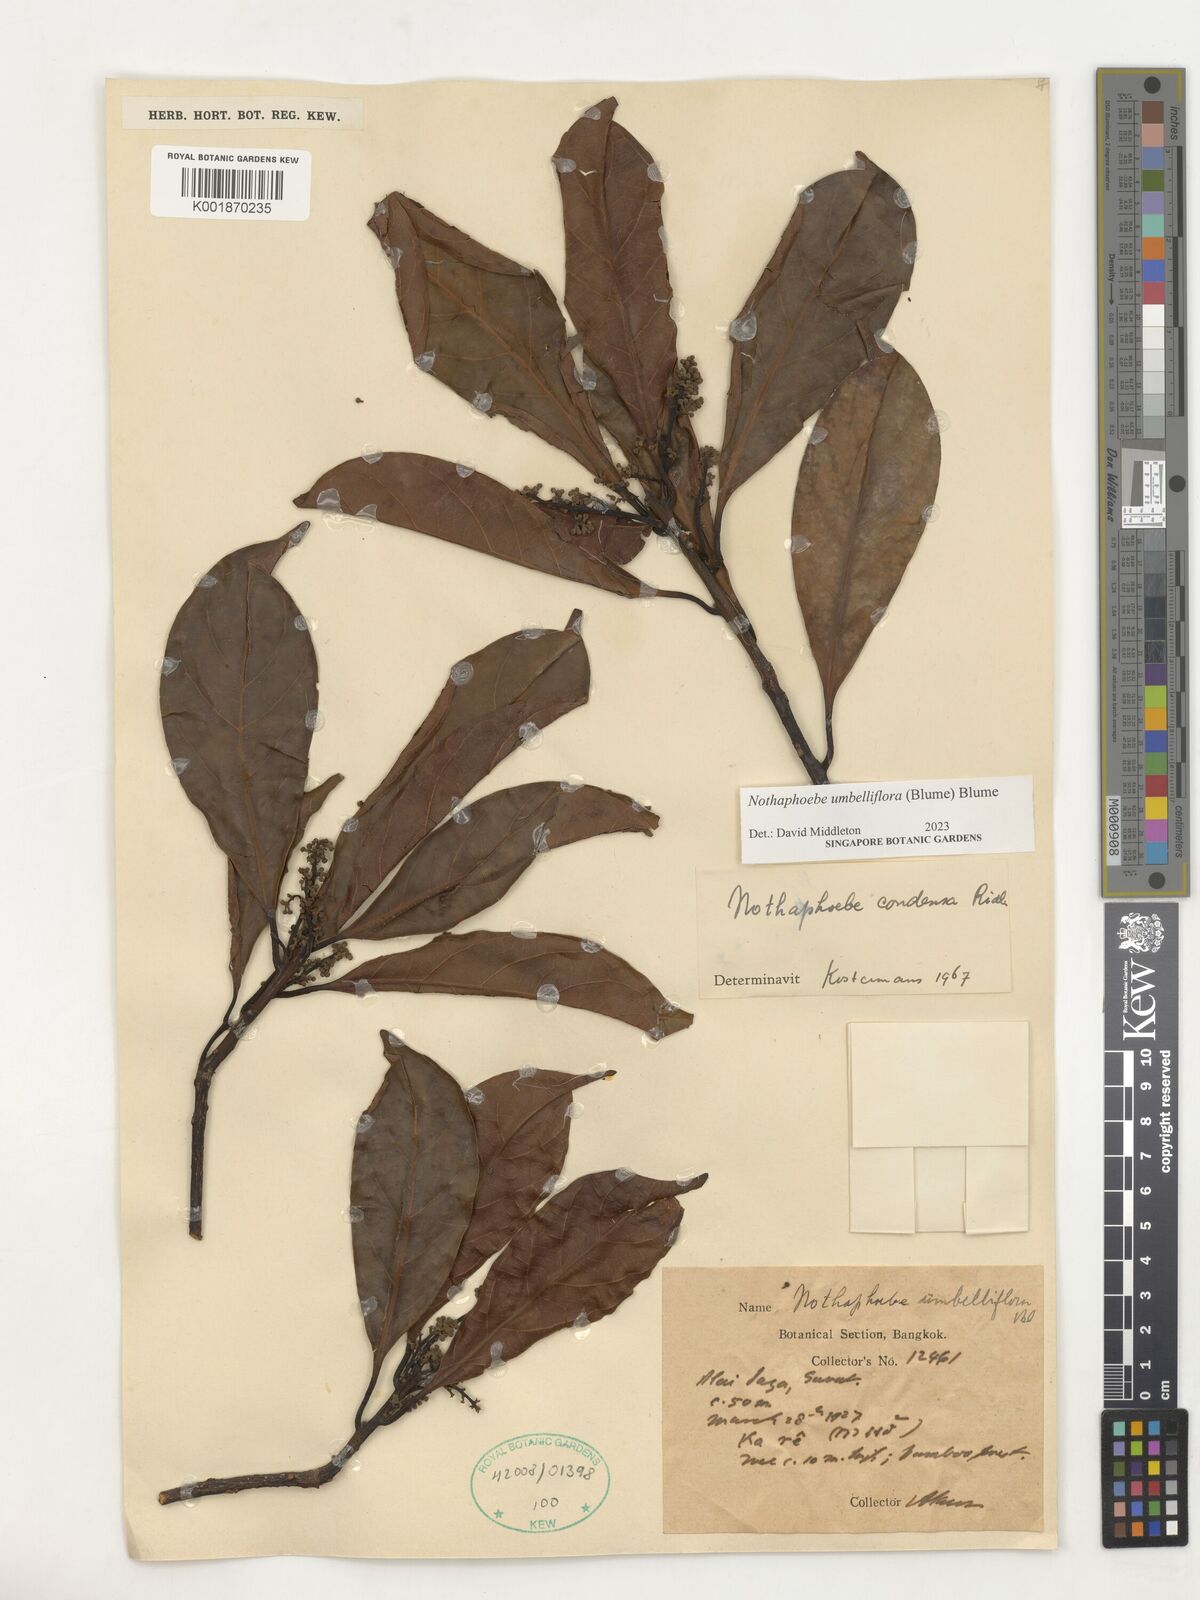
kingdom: Plantae
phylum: Tracheophyta
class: Magnoliopsida
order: Laurales
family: Lauraceae
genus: Nothaphoebe
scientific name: Nothaphoebe umbelliflora
